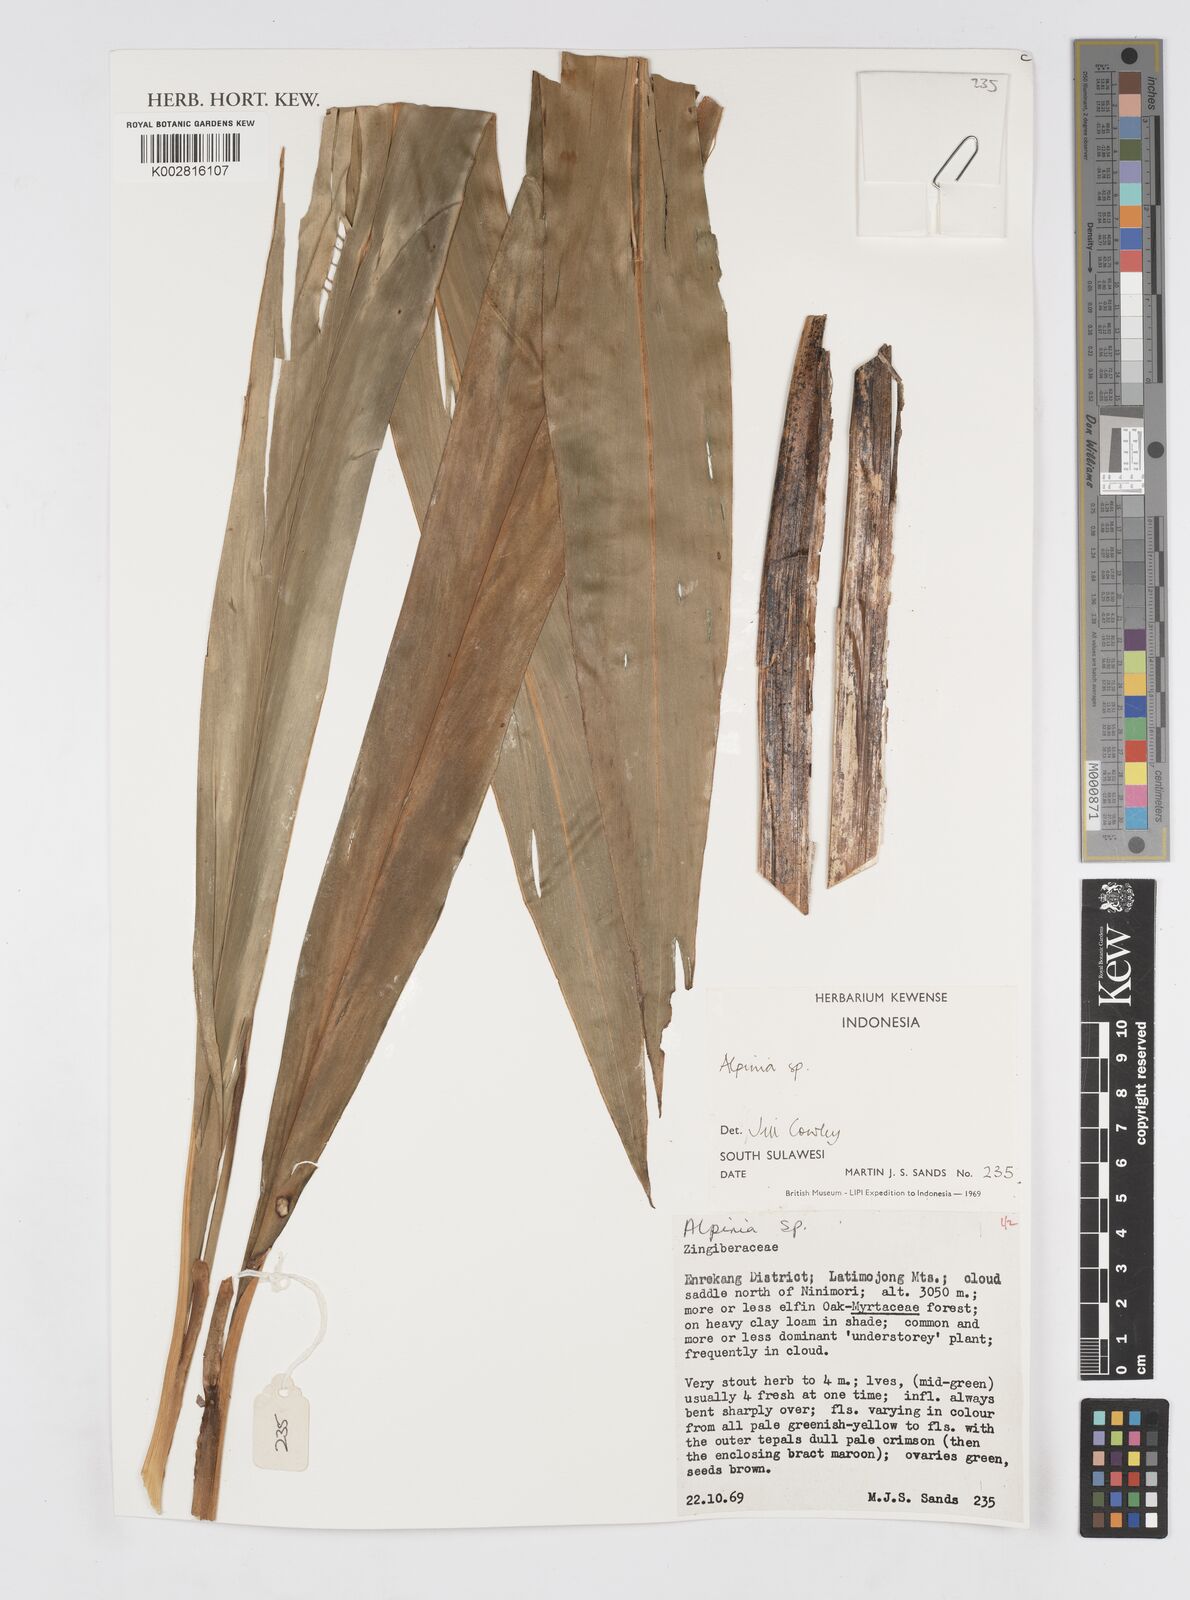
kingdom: Plantae
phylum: Tracheophyta
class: Liliopsida
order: Zingiberales
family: Zingiberaceae
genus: Alpinia
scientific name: Alpinia
